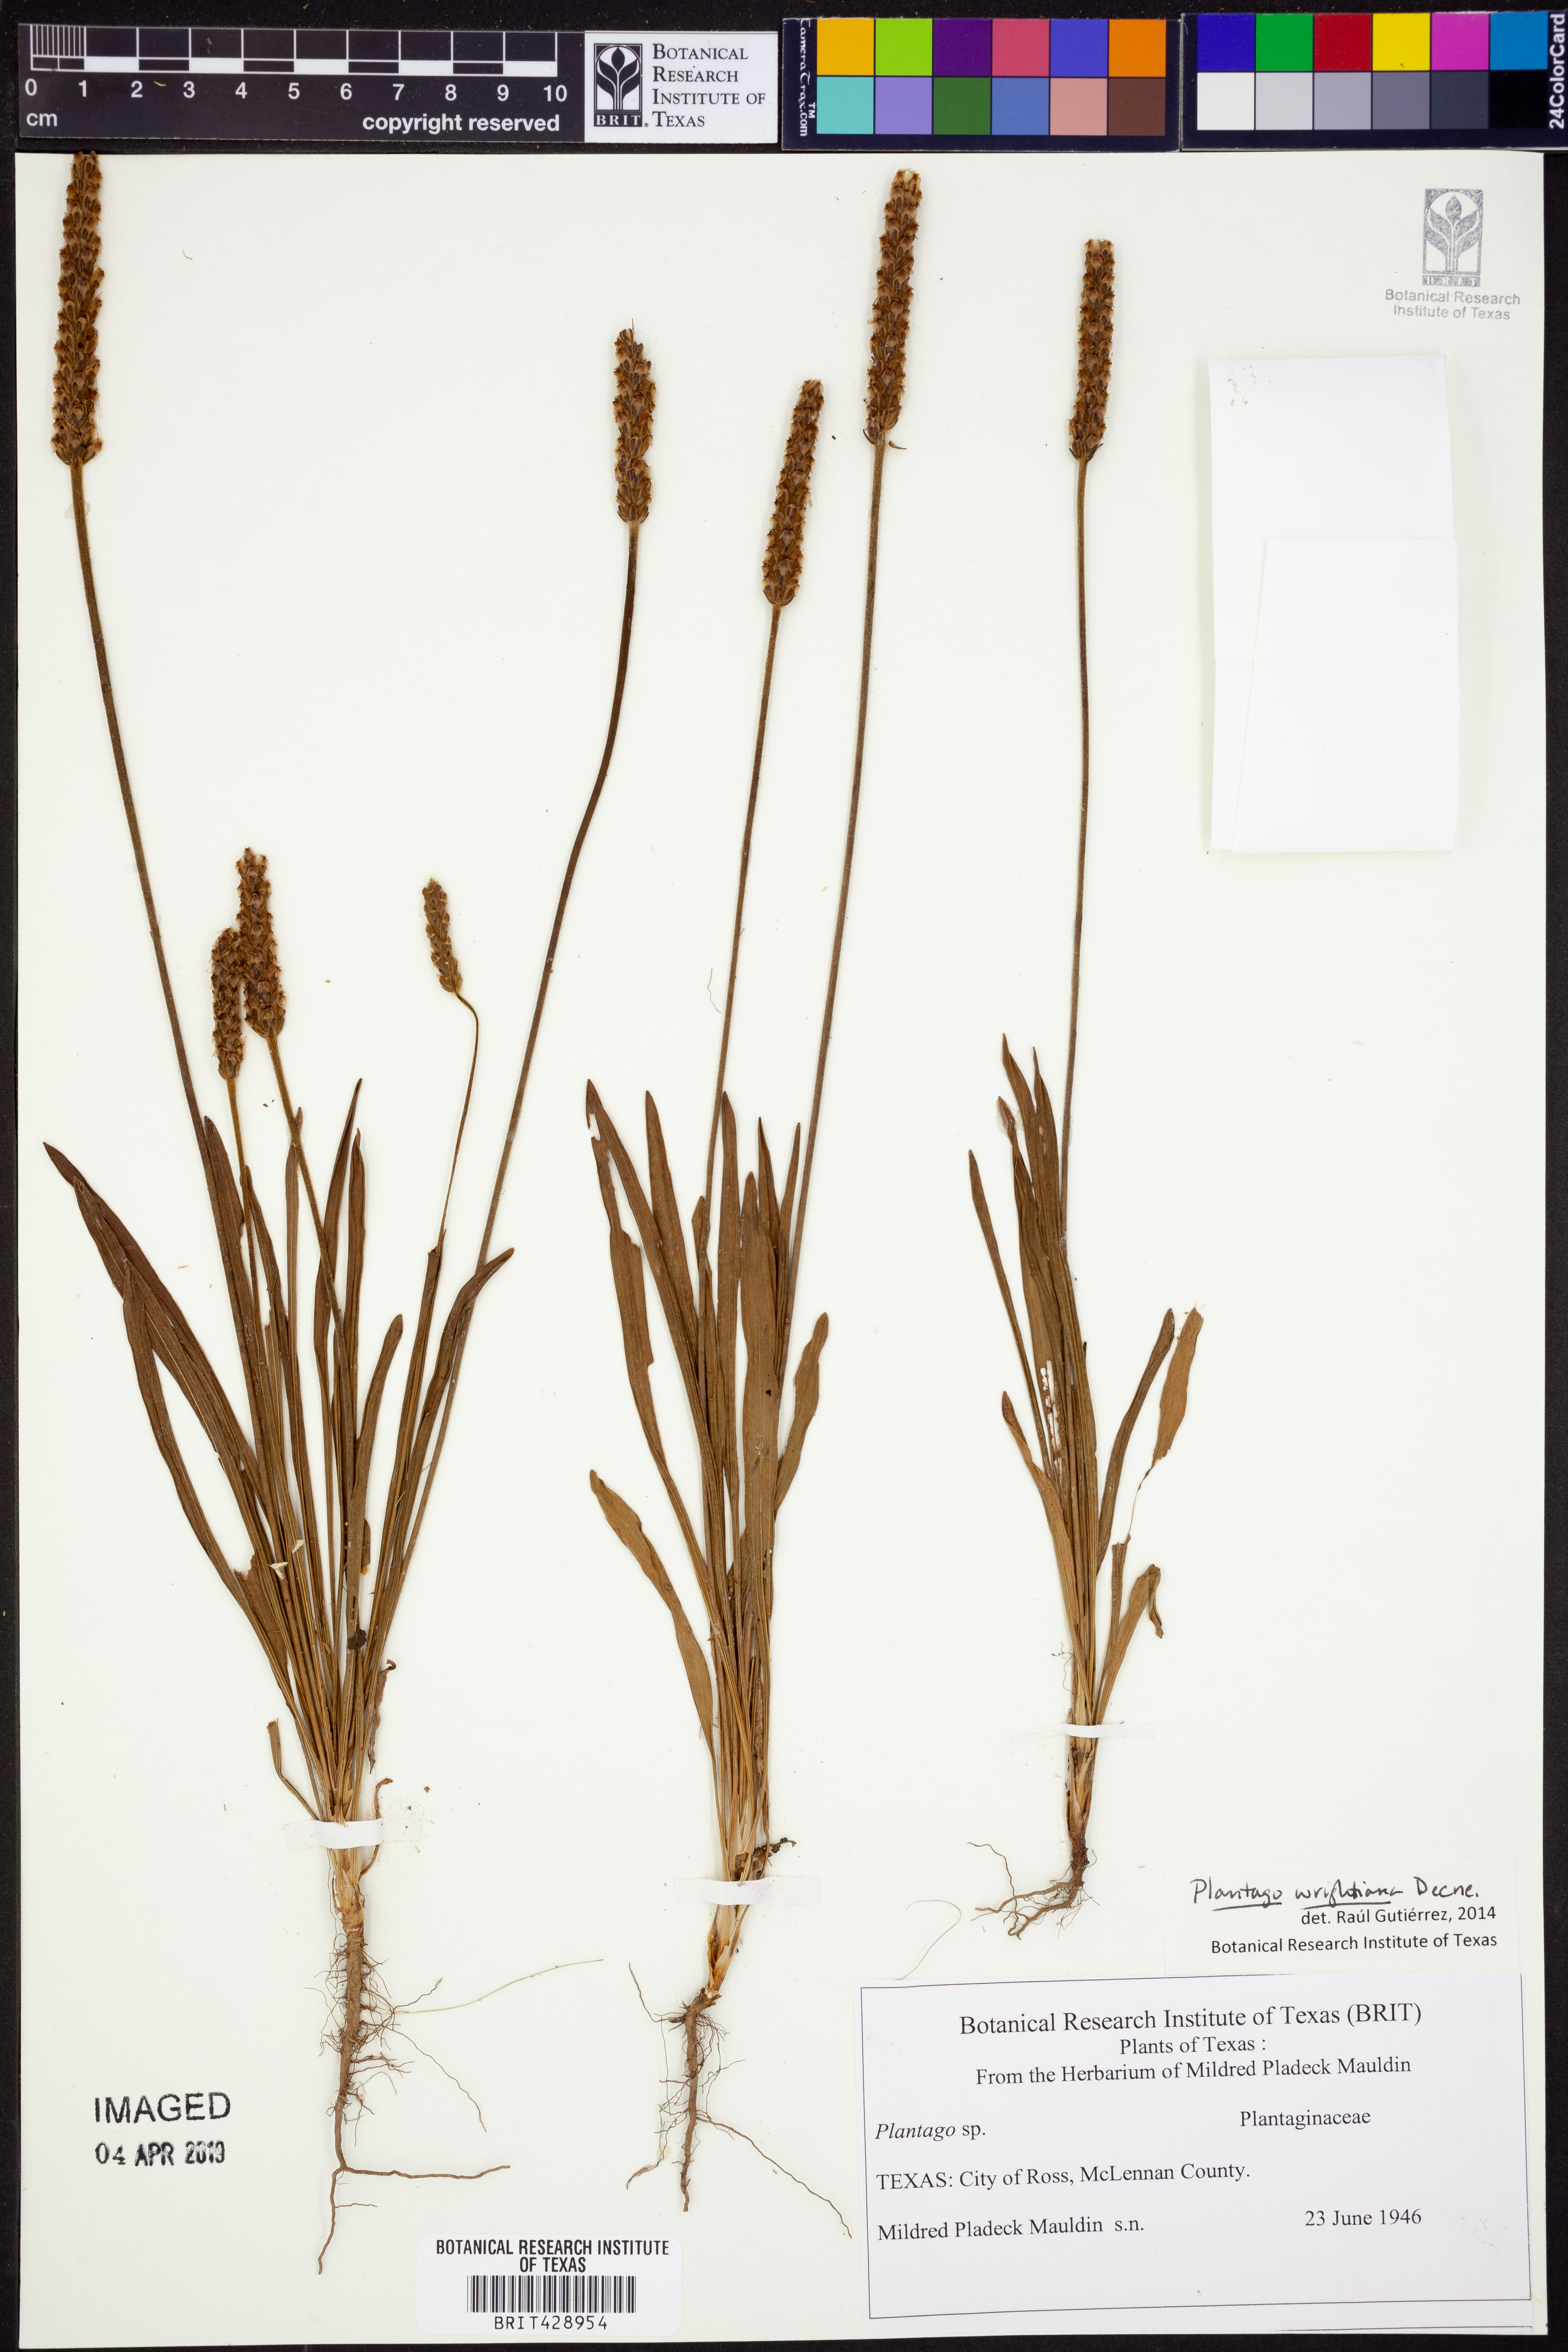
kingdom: Plantae
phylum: Tracheophyta
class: Magnoliopsida
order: Lamiales
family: Plantaginaceae
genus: Plantago
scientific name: Plantago wrightiana
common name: Wright's plantain
